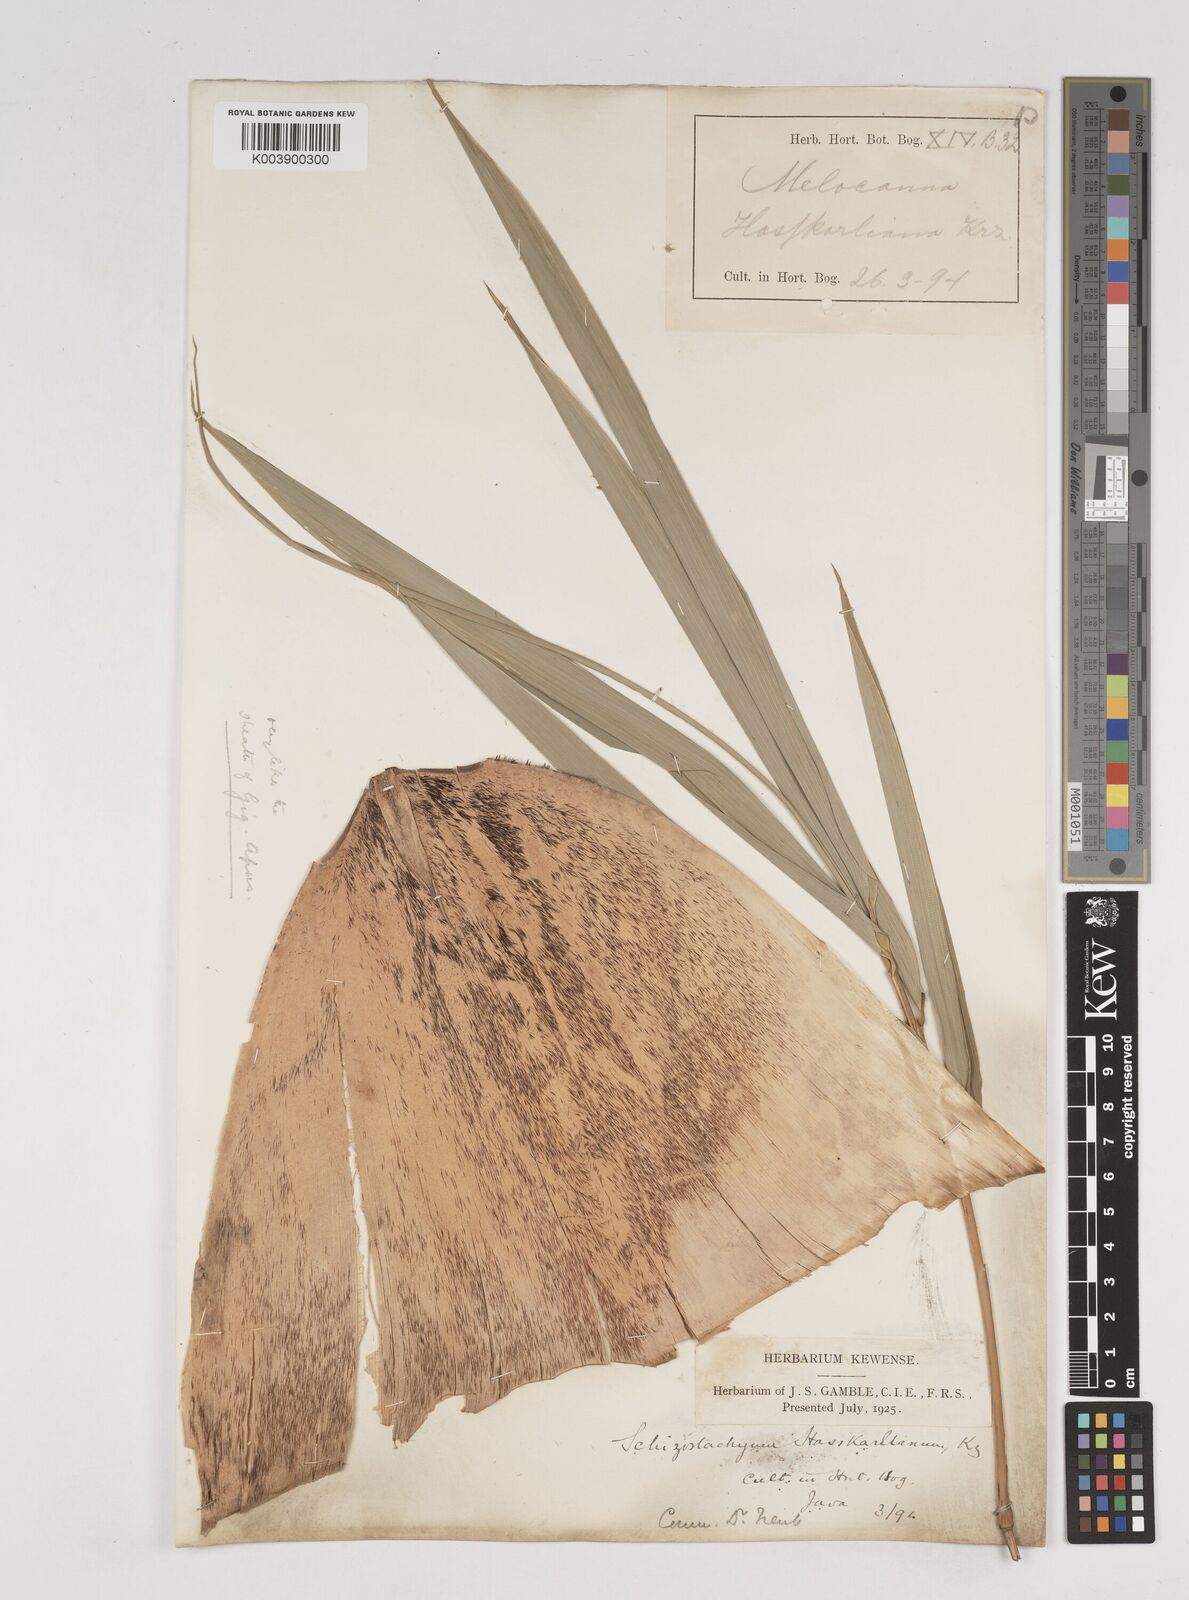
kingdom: Plantae
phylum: Tracheophyta
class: Liliopsida
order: Poales
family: Poaceae
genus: Gigantochloa
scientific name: Gigantochloa hasskarliana
